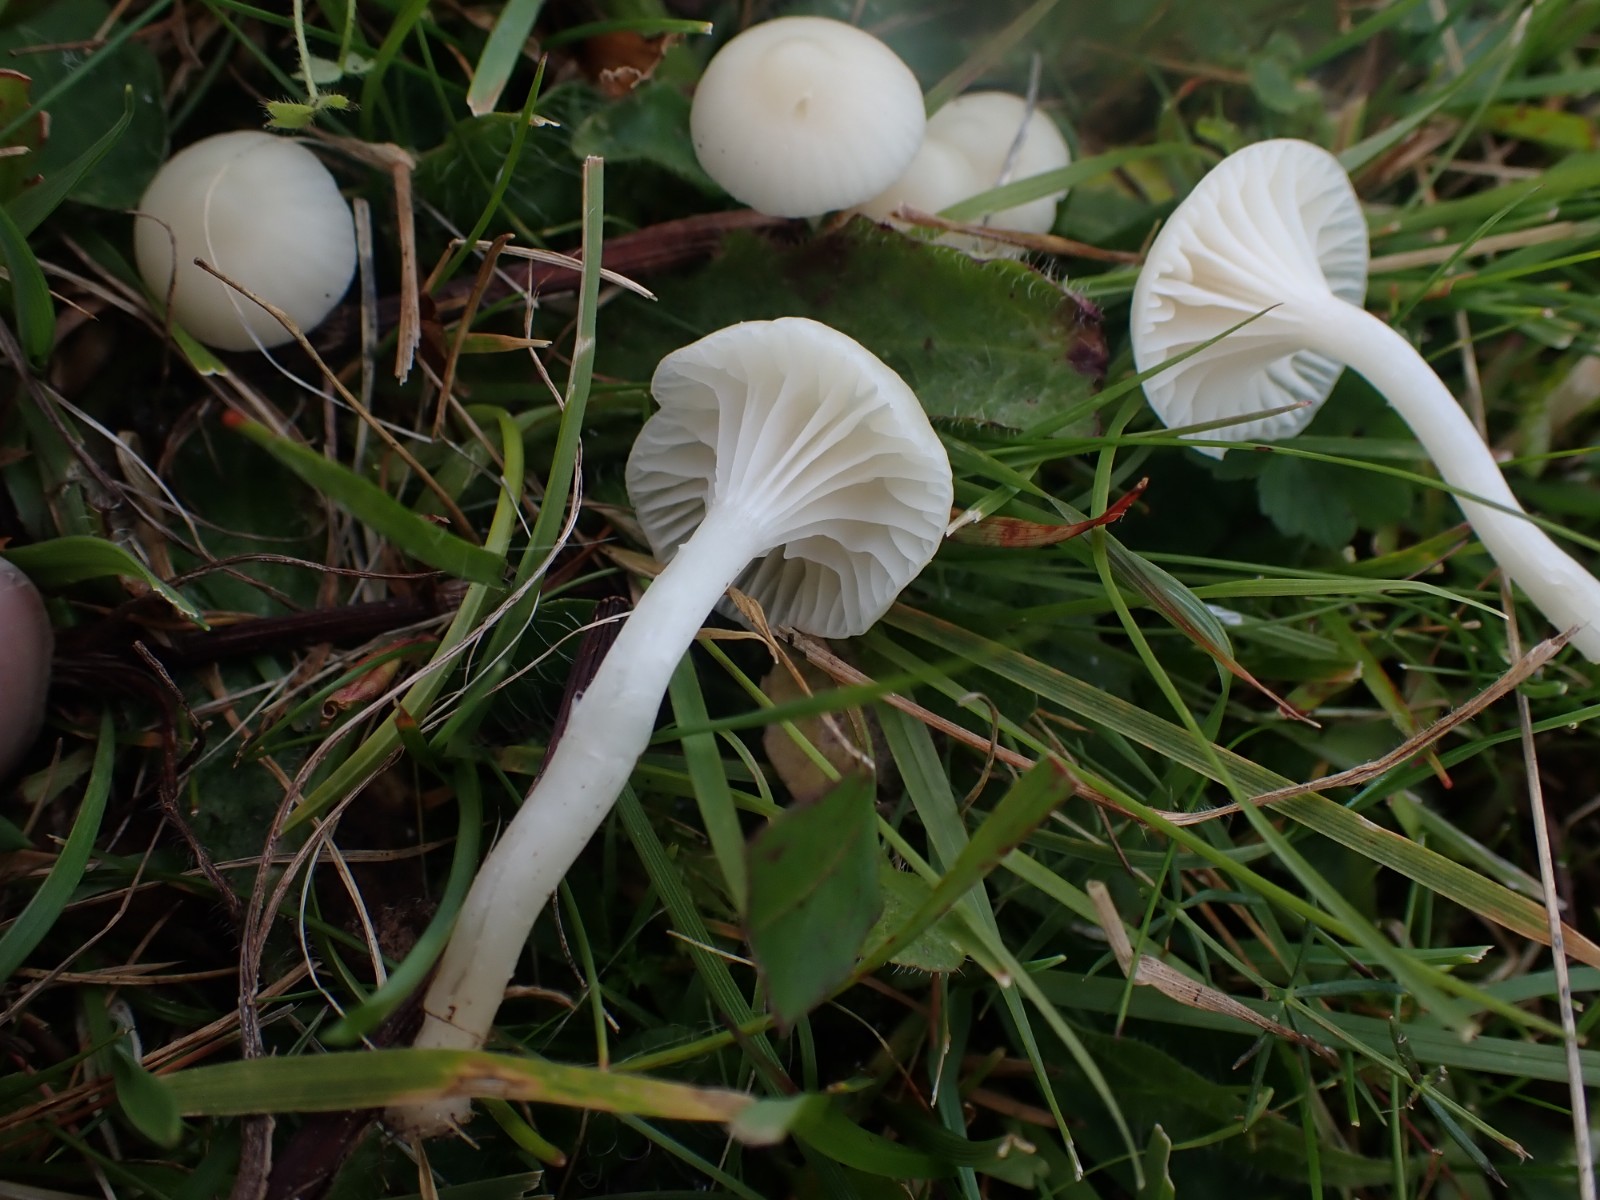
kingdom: Fungi
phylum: Basidiomycota
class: Agaricomycetes
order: Agaricales
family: Hygrophoraceae
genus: Cuphophyllus
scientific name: Cuphophyllus virgineus
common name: snehvid vokshat
